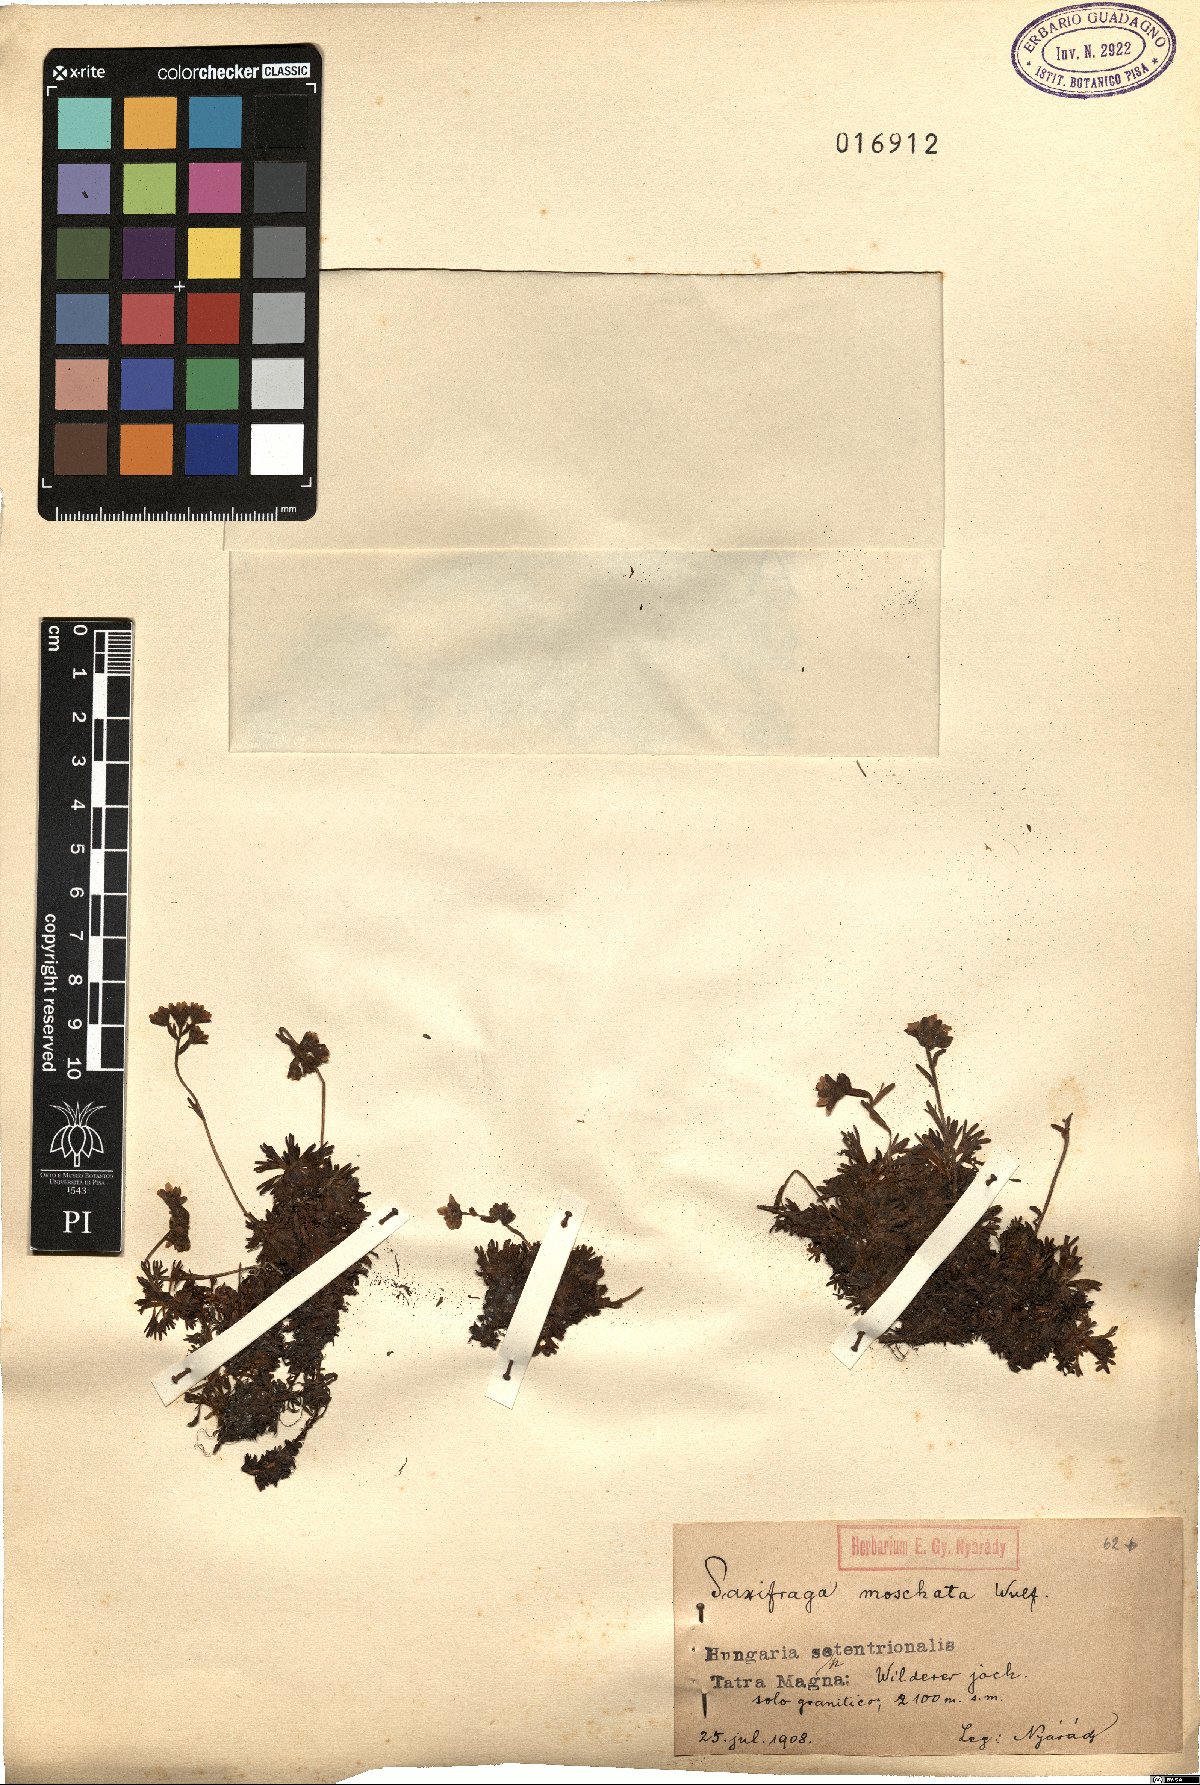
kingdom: Plantae
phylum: Tracheophyta
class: Magnoliopsida
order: Saxifragales
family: Saxifragaceae
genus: Saxifraga
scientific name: Saxifraga moschata
